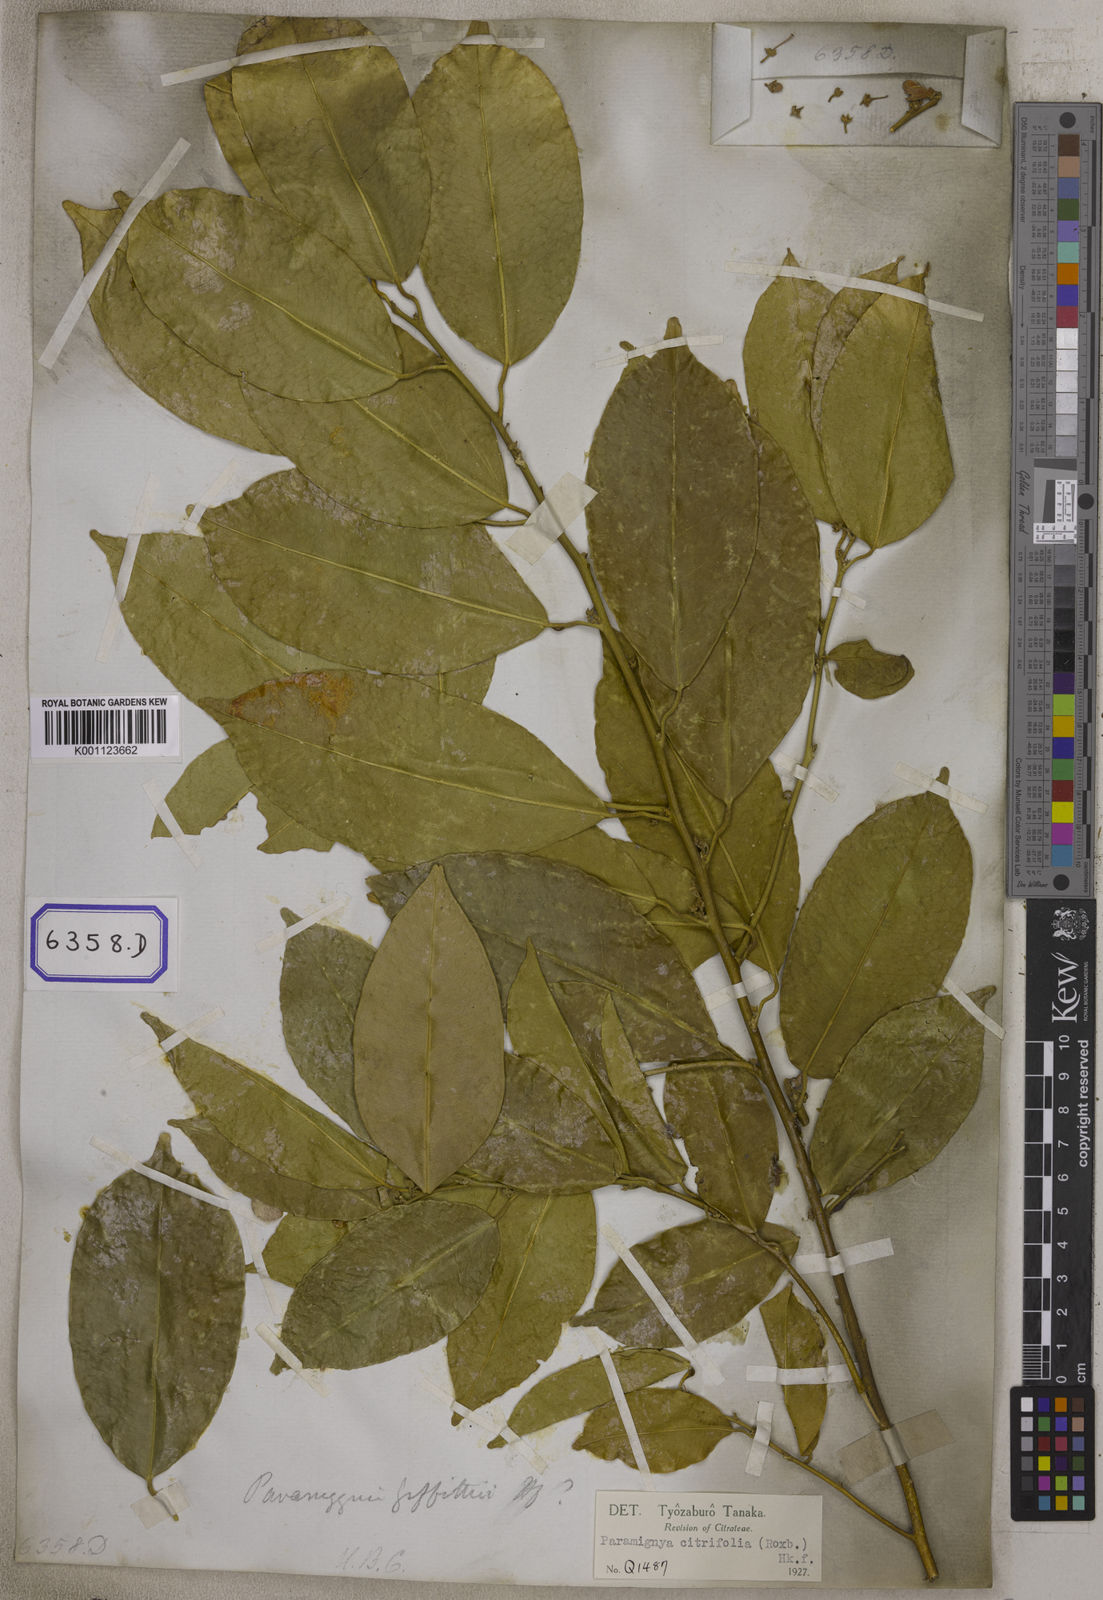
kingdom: Plantae
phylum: Tracheophyta
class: Magnoliopsida
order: Sapindales
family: Rutaceae
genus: Limonia
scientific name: Limonia
